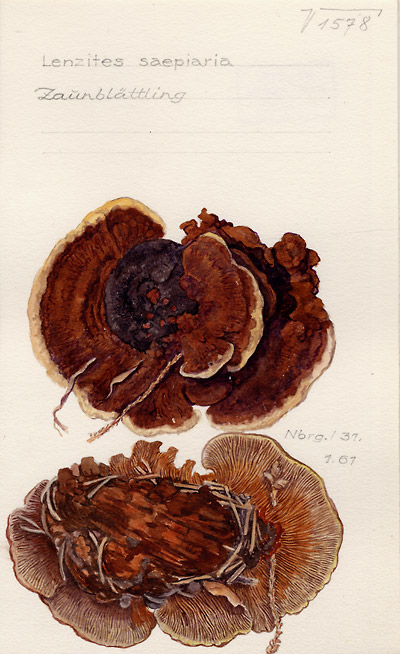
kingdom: Fungi
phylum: Basidiomycota
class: Agaricomycetes
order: Gloeophyllales
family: Gloeophyllaceae
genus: Gloeophyllum
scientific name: Gloeophyllum sepiarium
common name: Conifer mazegill
